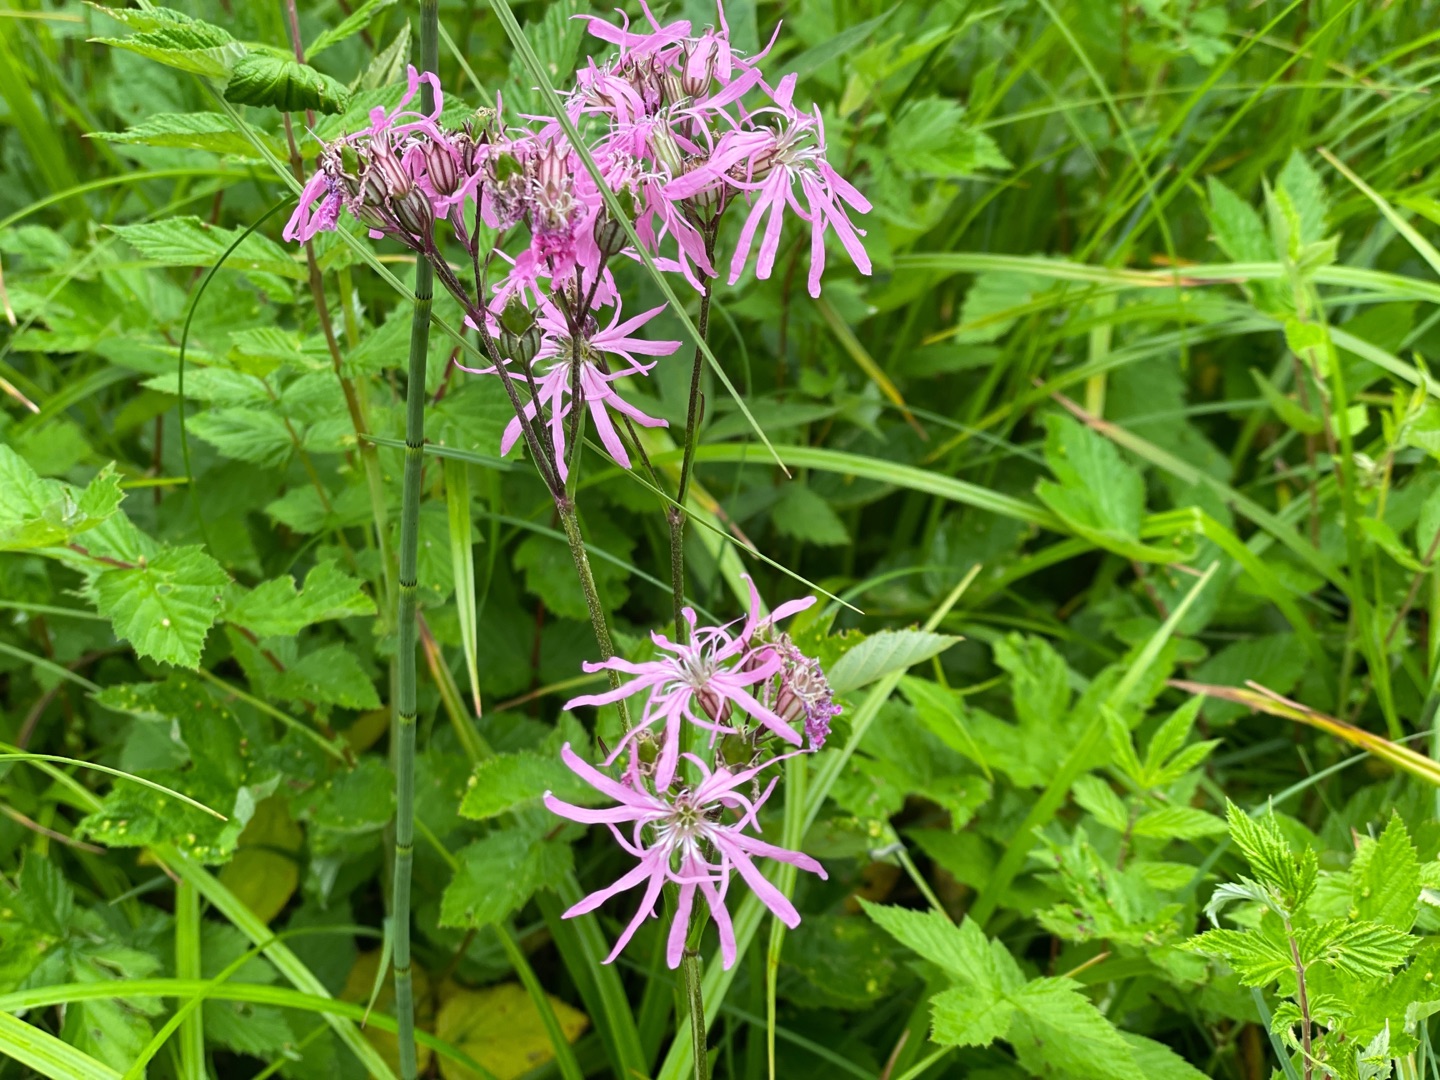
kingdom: Plantae
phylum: Tracheophyta
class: Magnoliopsida
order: Caryophyllales
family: Caryophyllaceae
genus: Silene
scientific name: Silene flos-cuculi
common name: Trævlekrone
